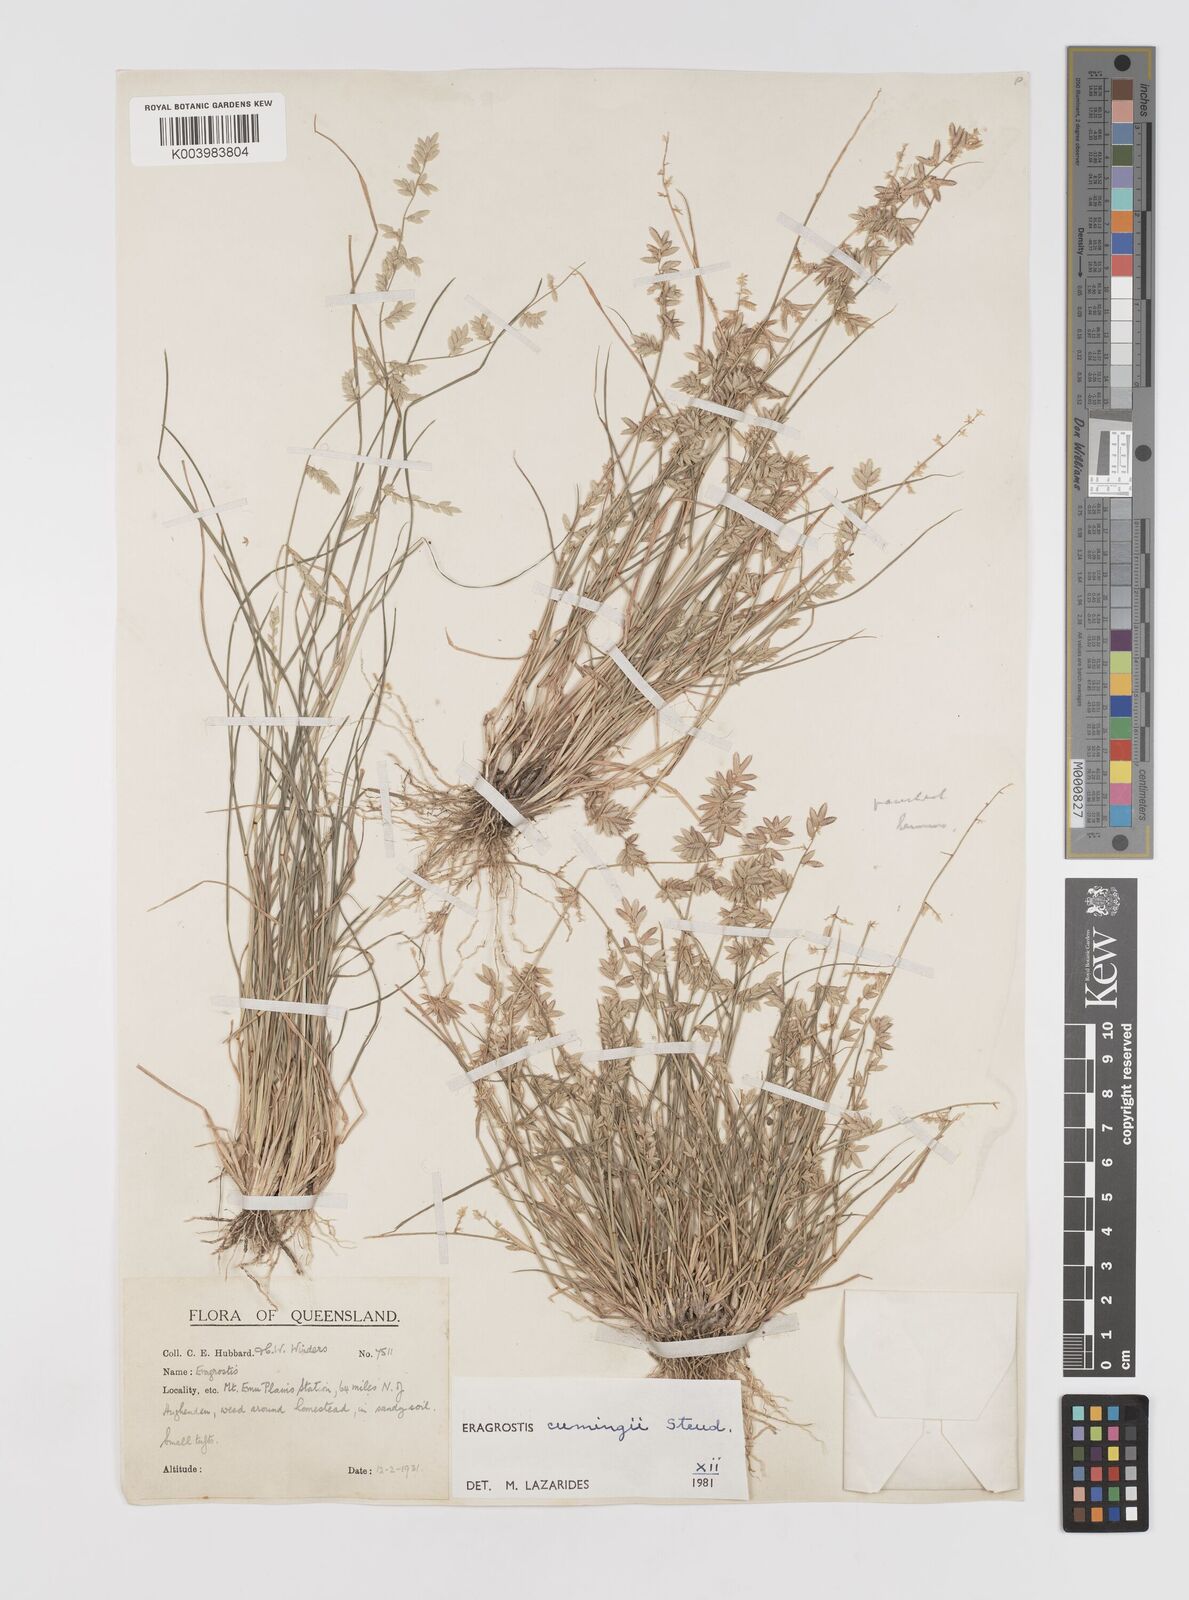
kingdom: Plantae
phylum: Tracheophyta
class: Liliopsida
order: Poales
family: Poaceae
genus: Eragrostis
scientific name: Eragrostis cumingii
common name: Cuming's lovegrass
